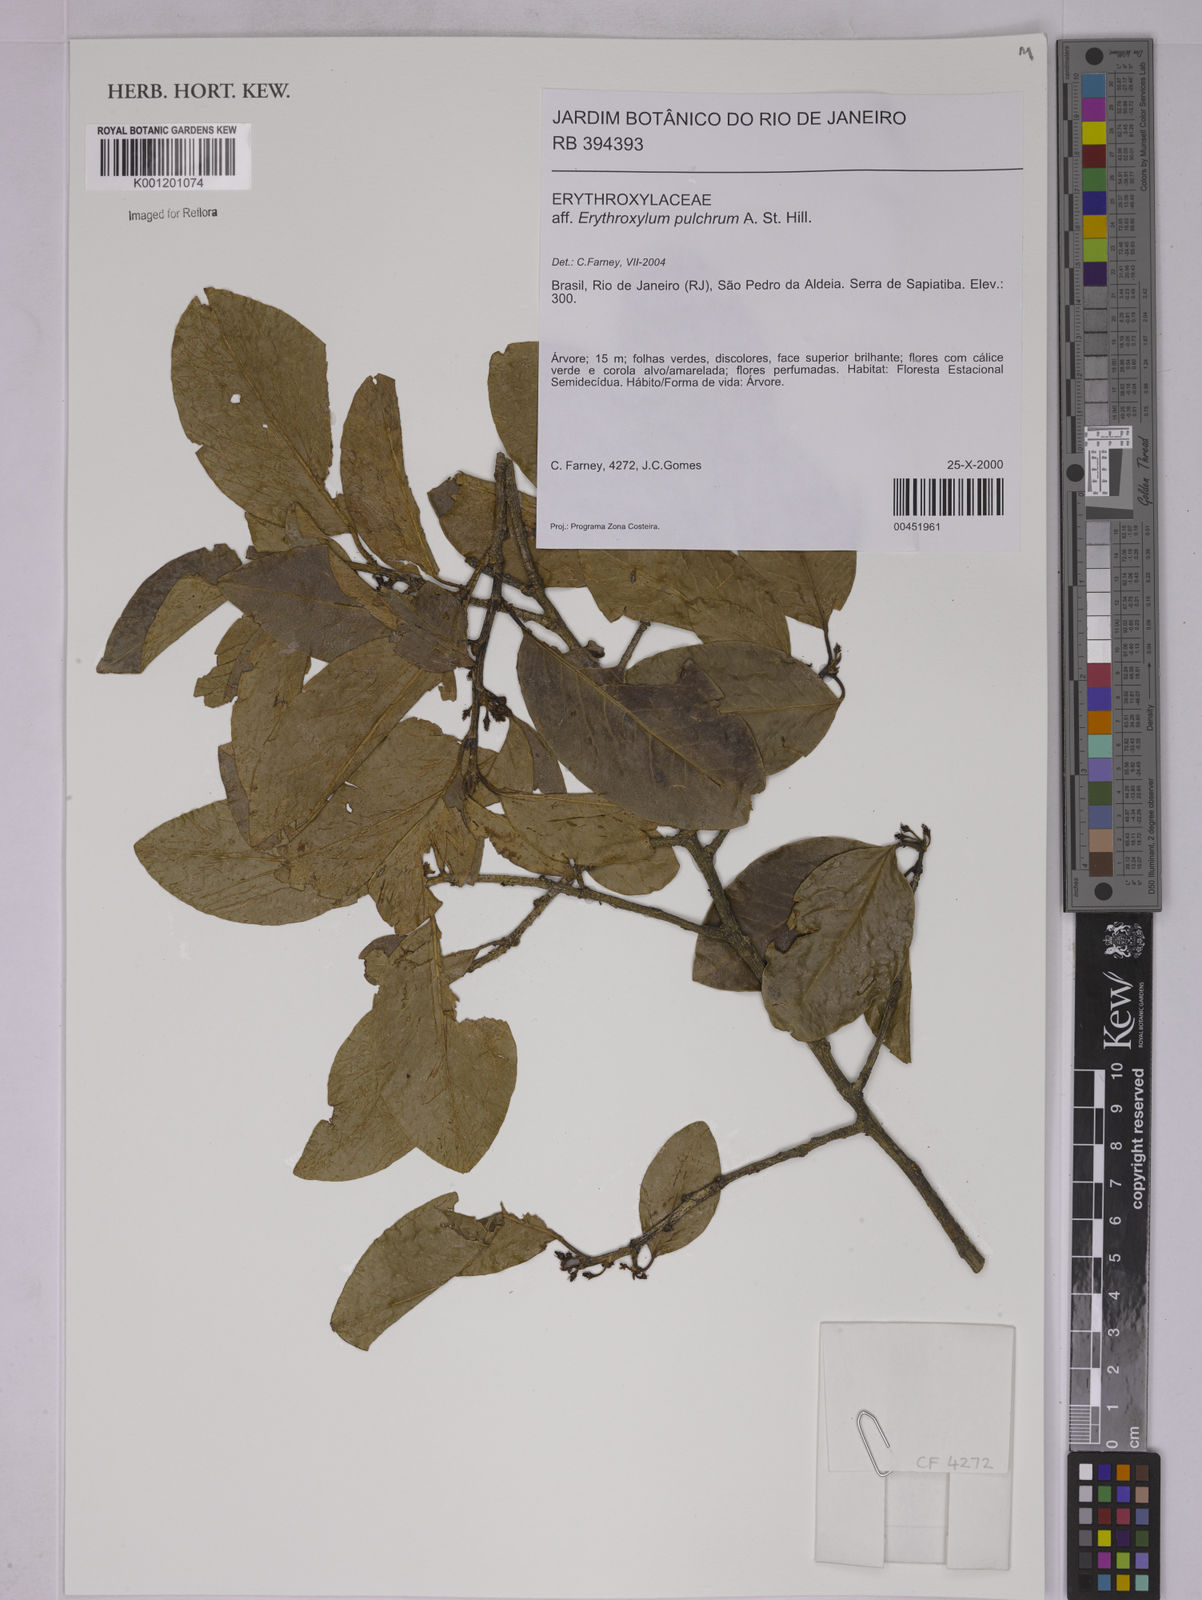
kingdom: Plantae
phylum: Tracheophyta
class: Magnoliopsida
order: Malpighiales
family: Erythroxylaceae
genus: Erythroxylum
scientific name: Erythroxylum pulchrum
